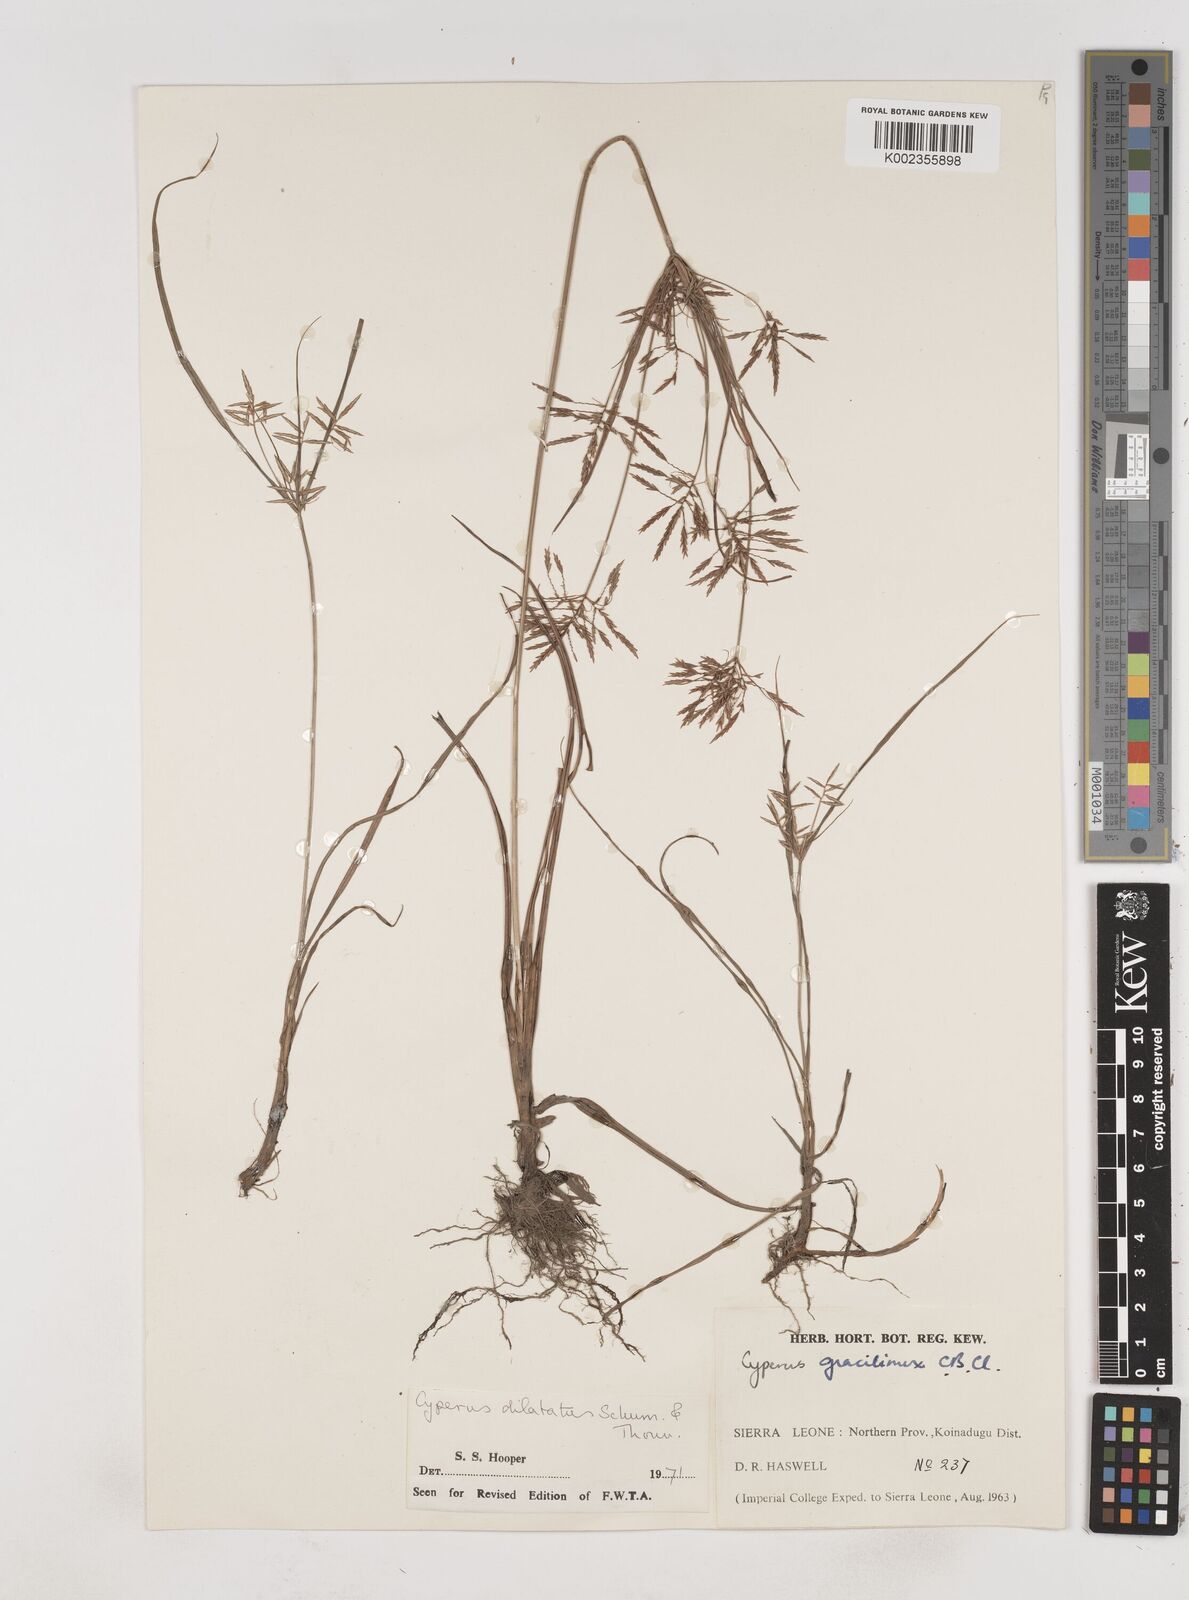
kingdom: Plantae
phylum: Tracheophyta
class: Liliopsida
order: Poales
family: Cyperaceae
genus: Cyperus
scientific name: Cyperus dilatatus
